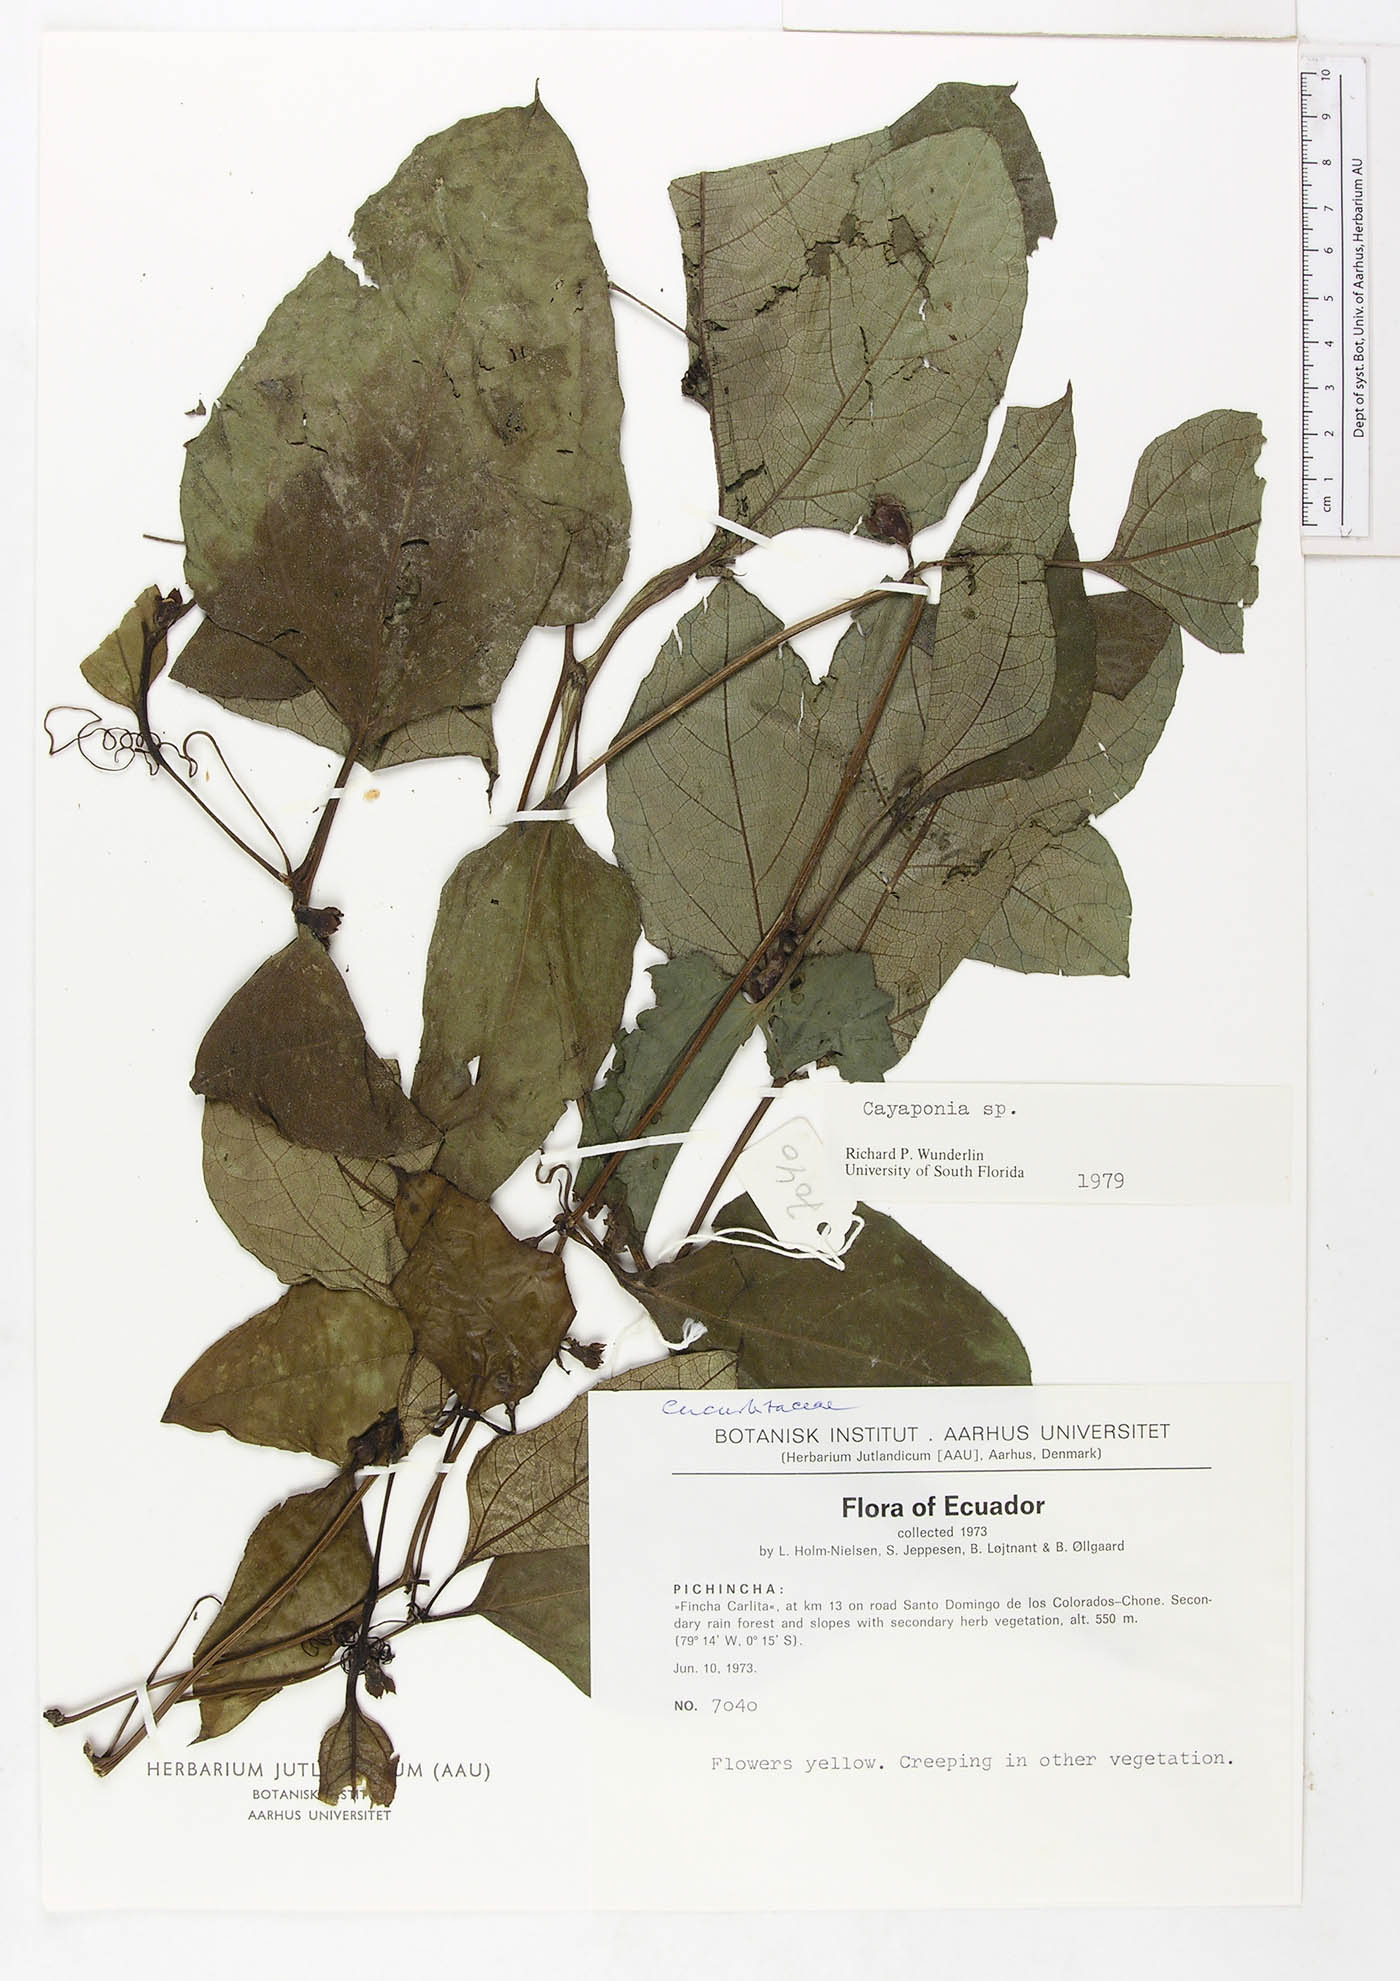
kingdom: Plantae
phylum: Tracheophyta
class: Magnoliopsida
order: Cucurbitales
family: Cucurbitaceae
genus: Cayaponia
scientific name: Cayaponia glandulosa
